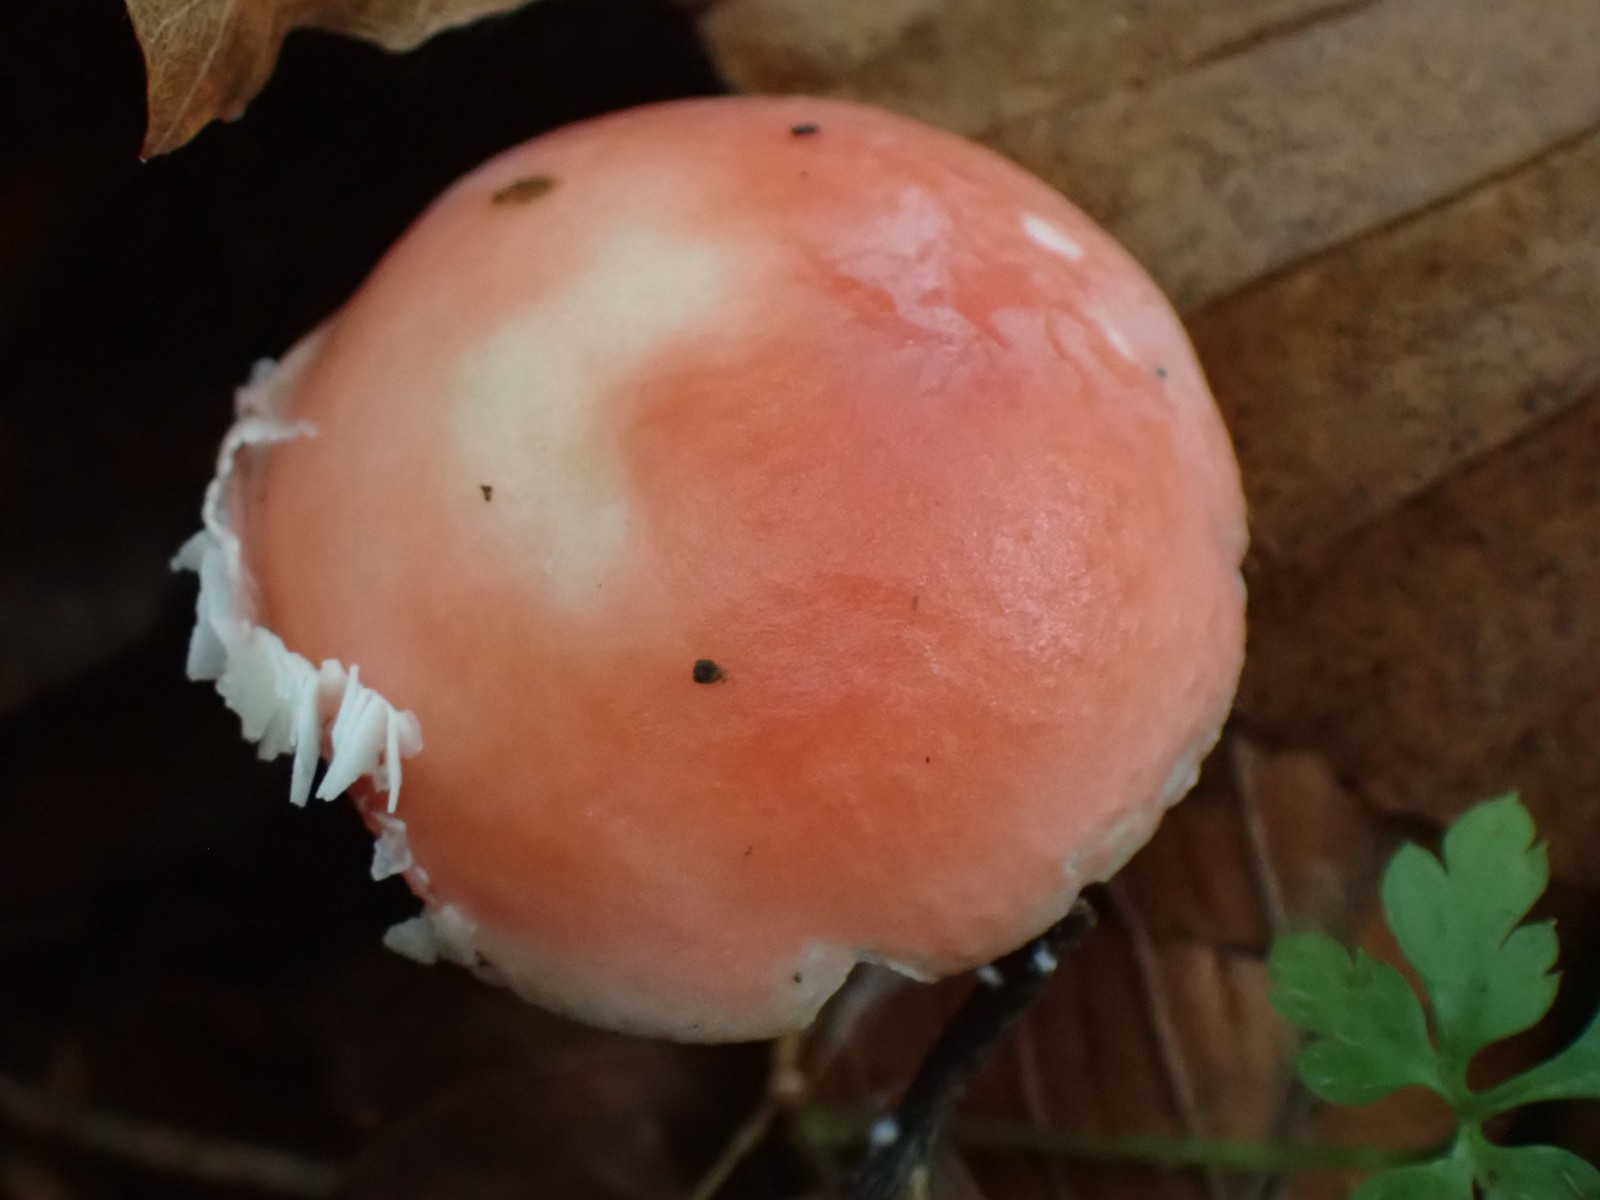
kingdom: Fungi
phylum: Basidiomycota
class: Agaricomycetes
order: Russulales
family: Russulaceae
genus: Russula
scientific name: Russula
